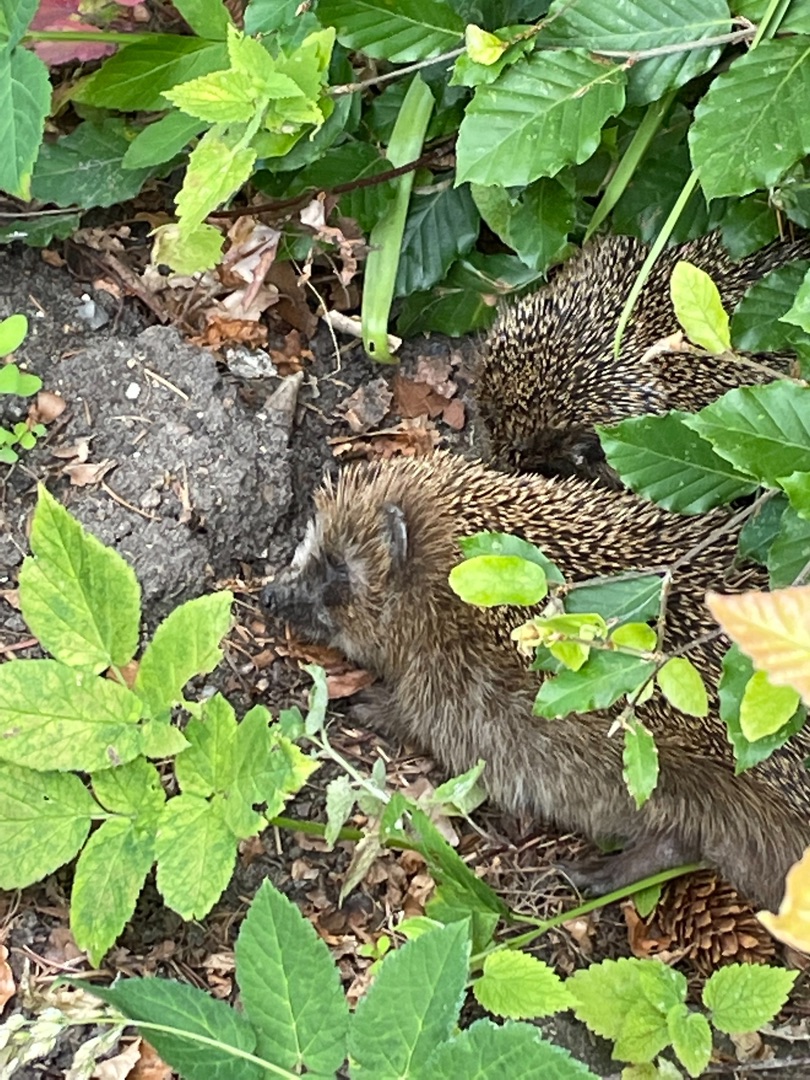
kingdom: Animalia
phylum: Chordata
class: Mammalia
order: Erinaceomorpha
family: Erinaceidae
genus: Erinaceus
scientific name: Erinaceus europaeus
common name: Pindsvin
